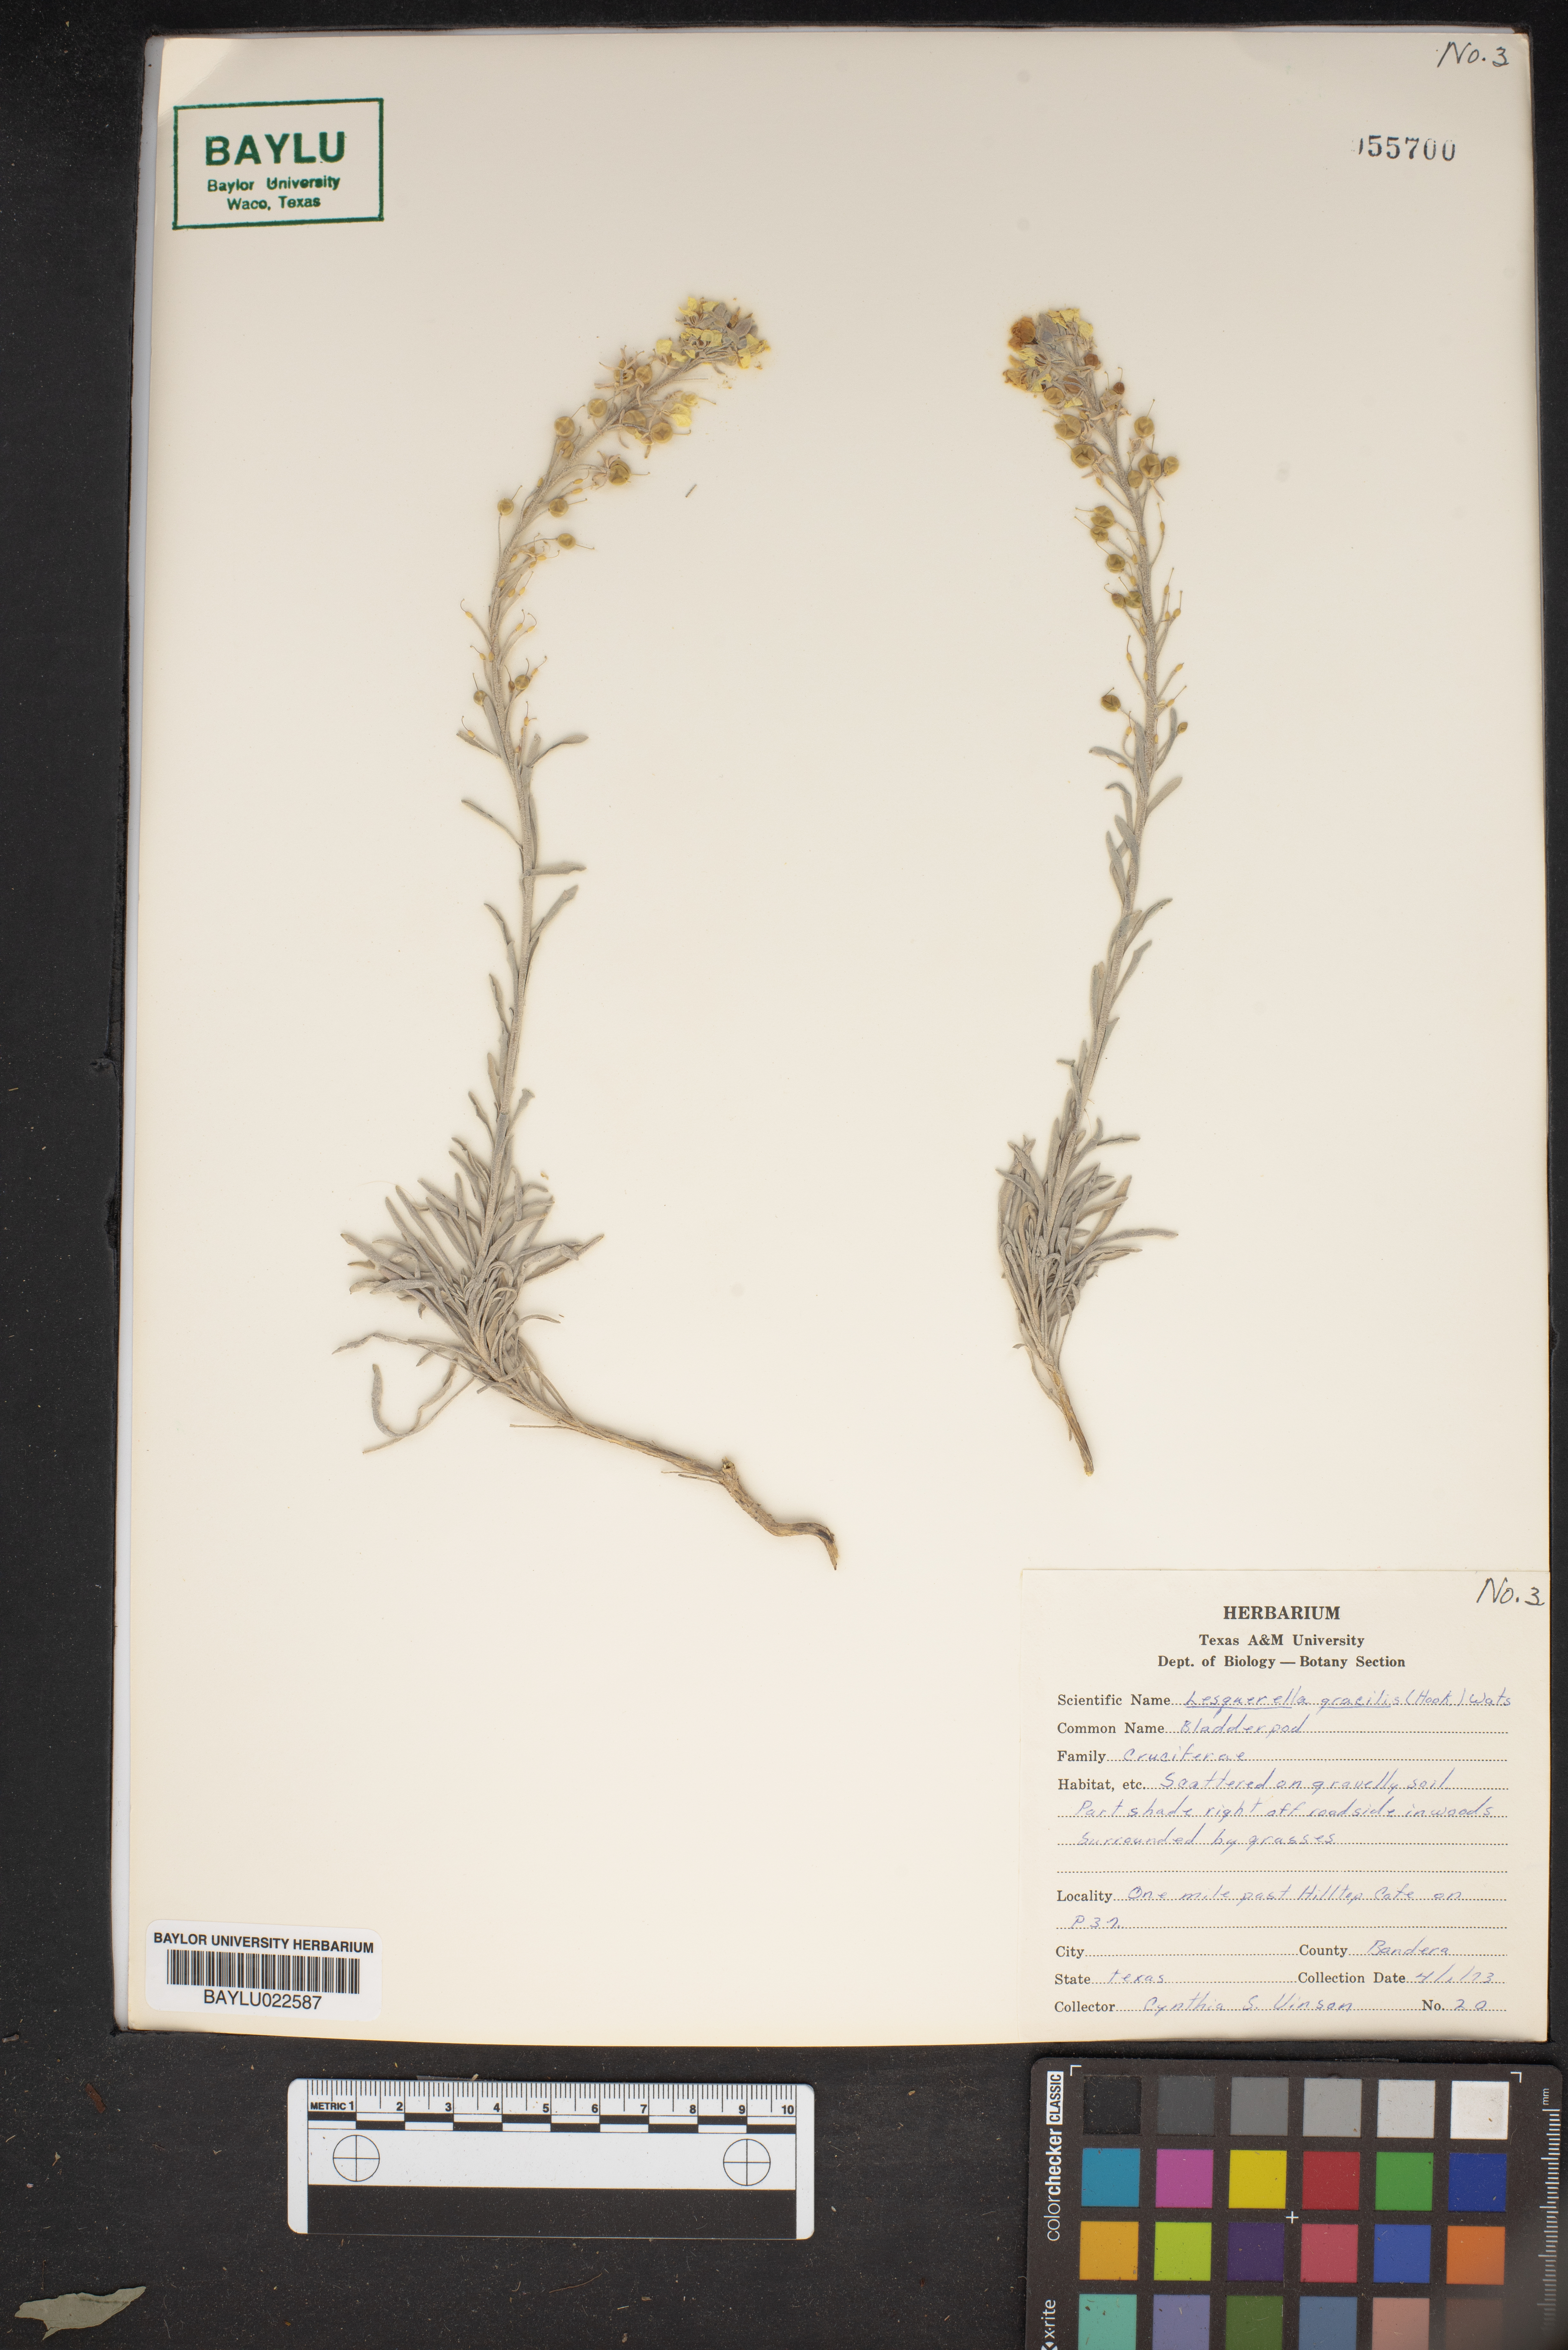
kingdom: Plantae
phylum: Tracheophyta
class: Magnoliopsida
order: Brassicales
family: Brassicaceae
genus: Physaria
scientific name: Physaria gracilis
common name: Spreading bladderpod
